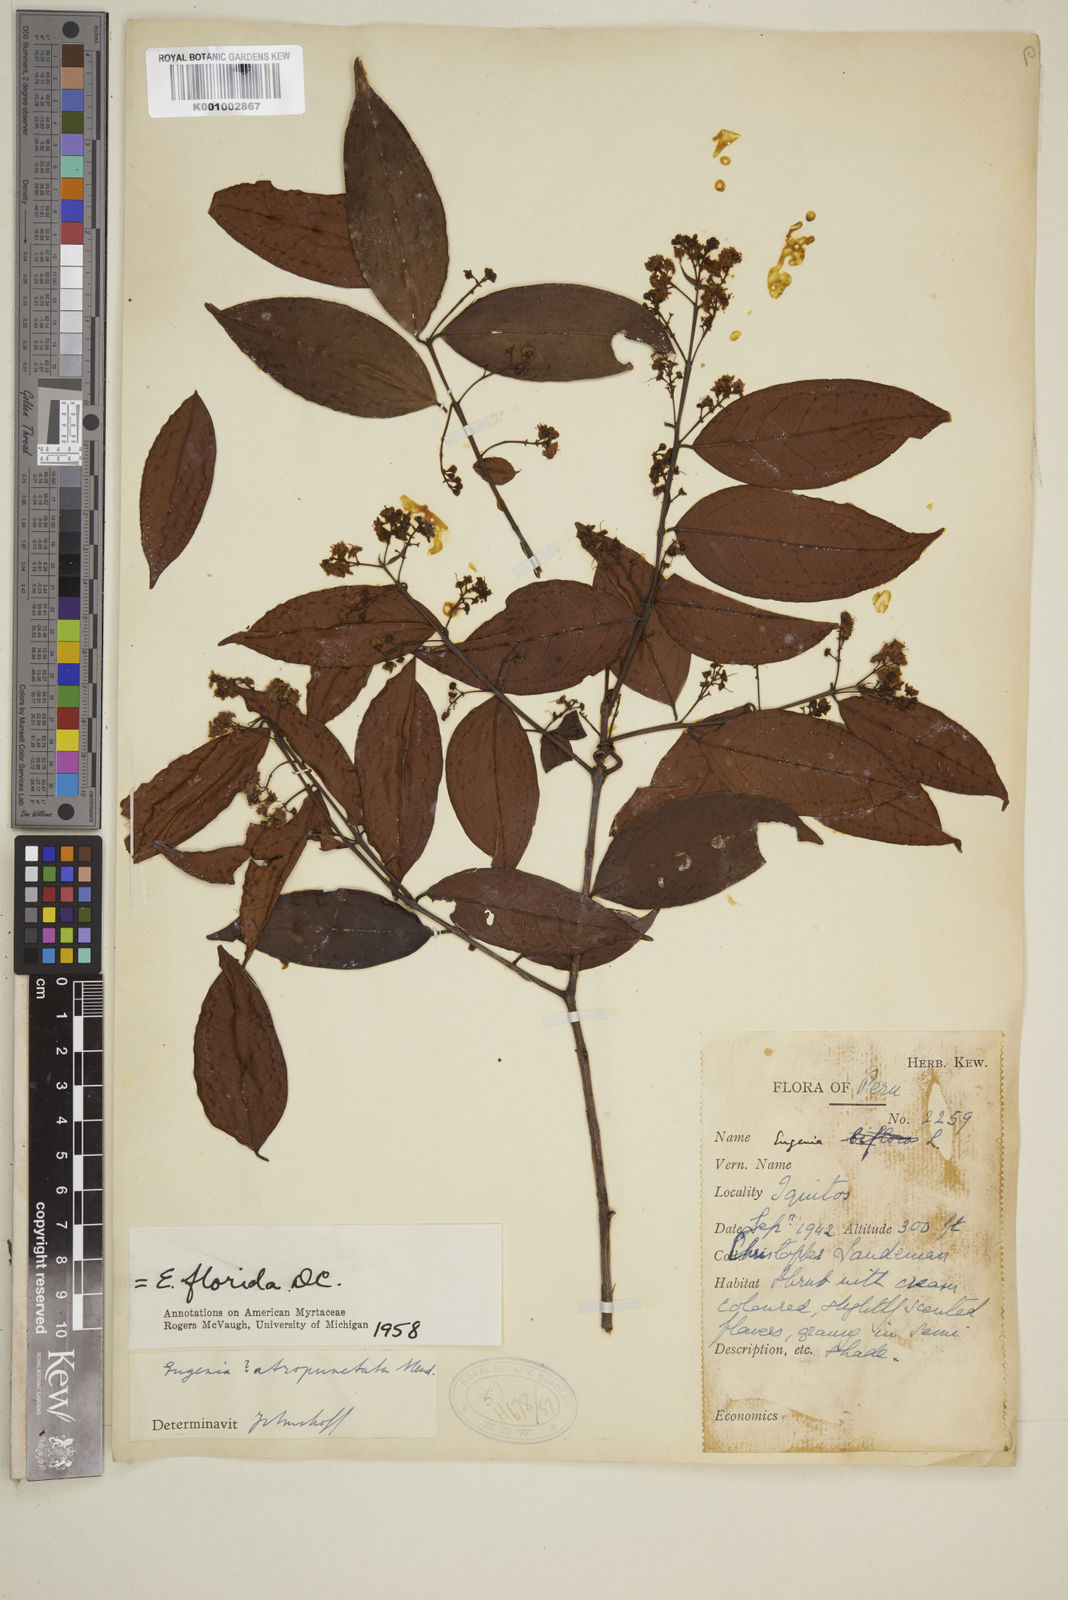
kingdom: Plantae
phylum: Tracheophyta
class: Magnoliopsida
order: Myrtales
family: Myrtaceae
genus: Eugenia
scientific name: Eugenia florida
